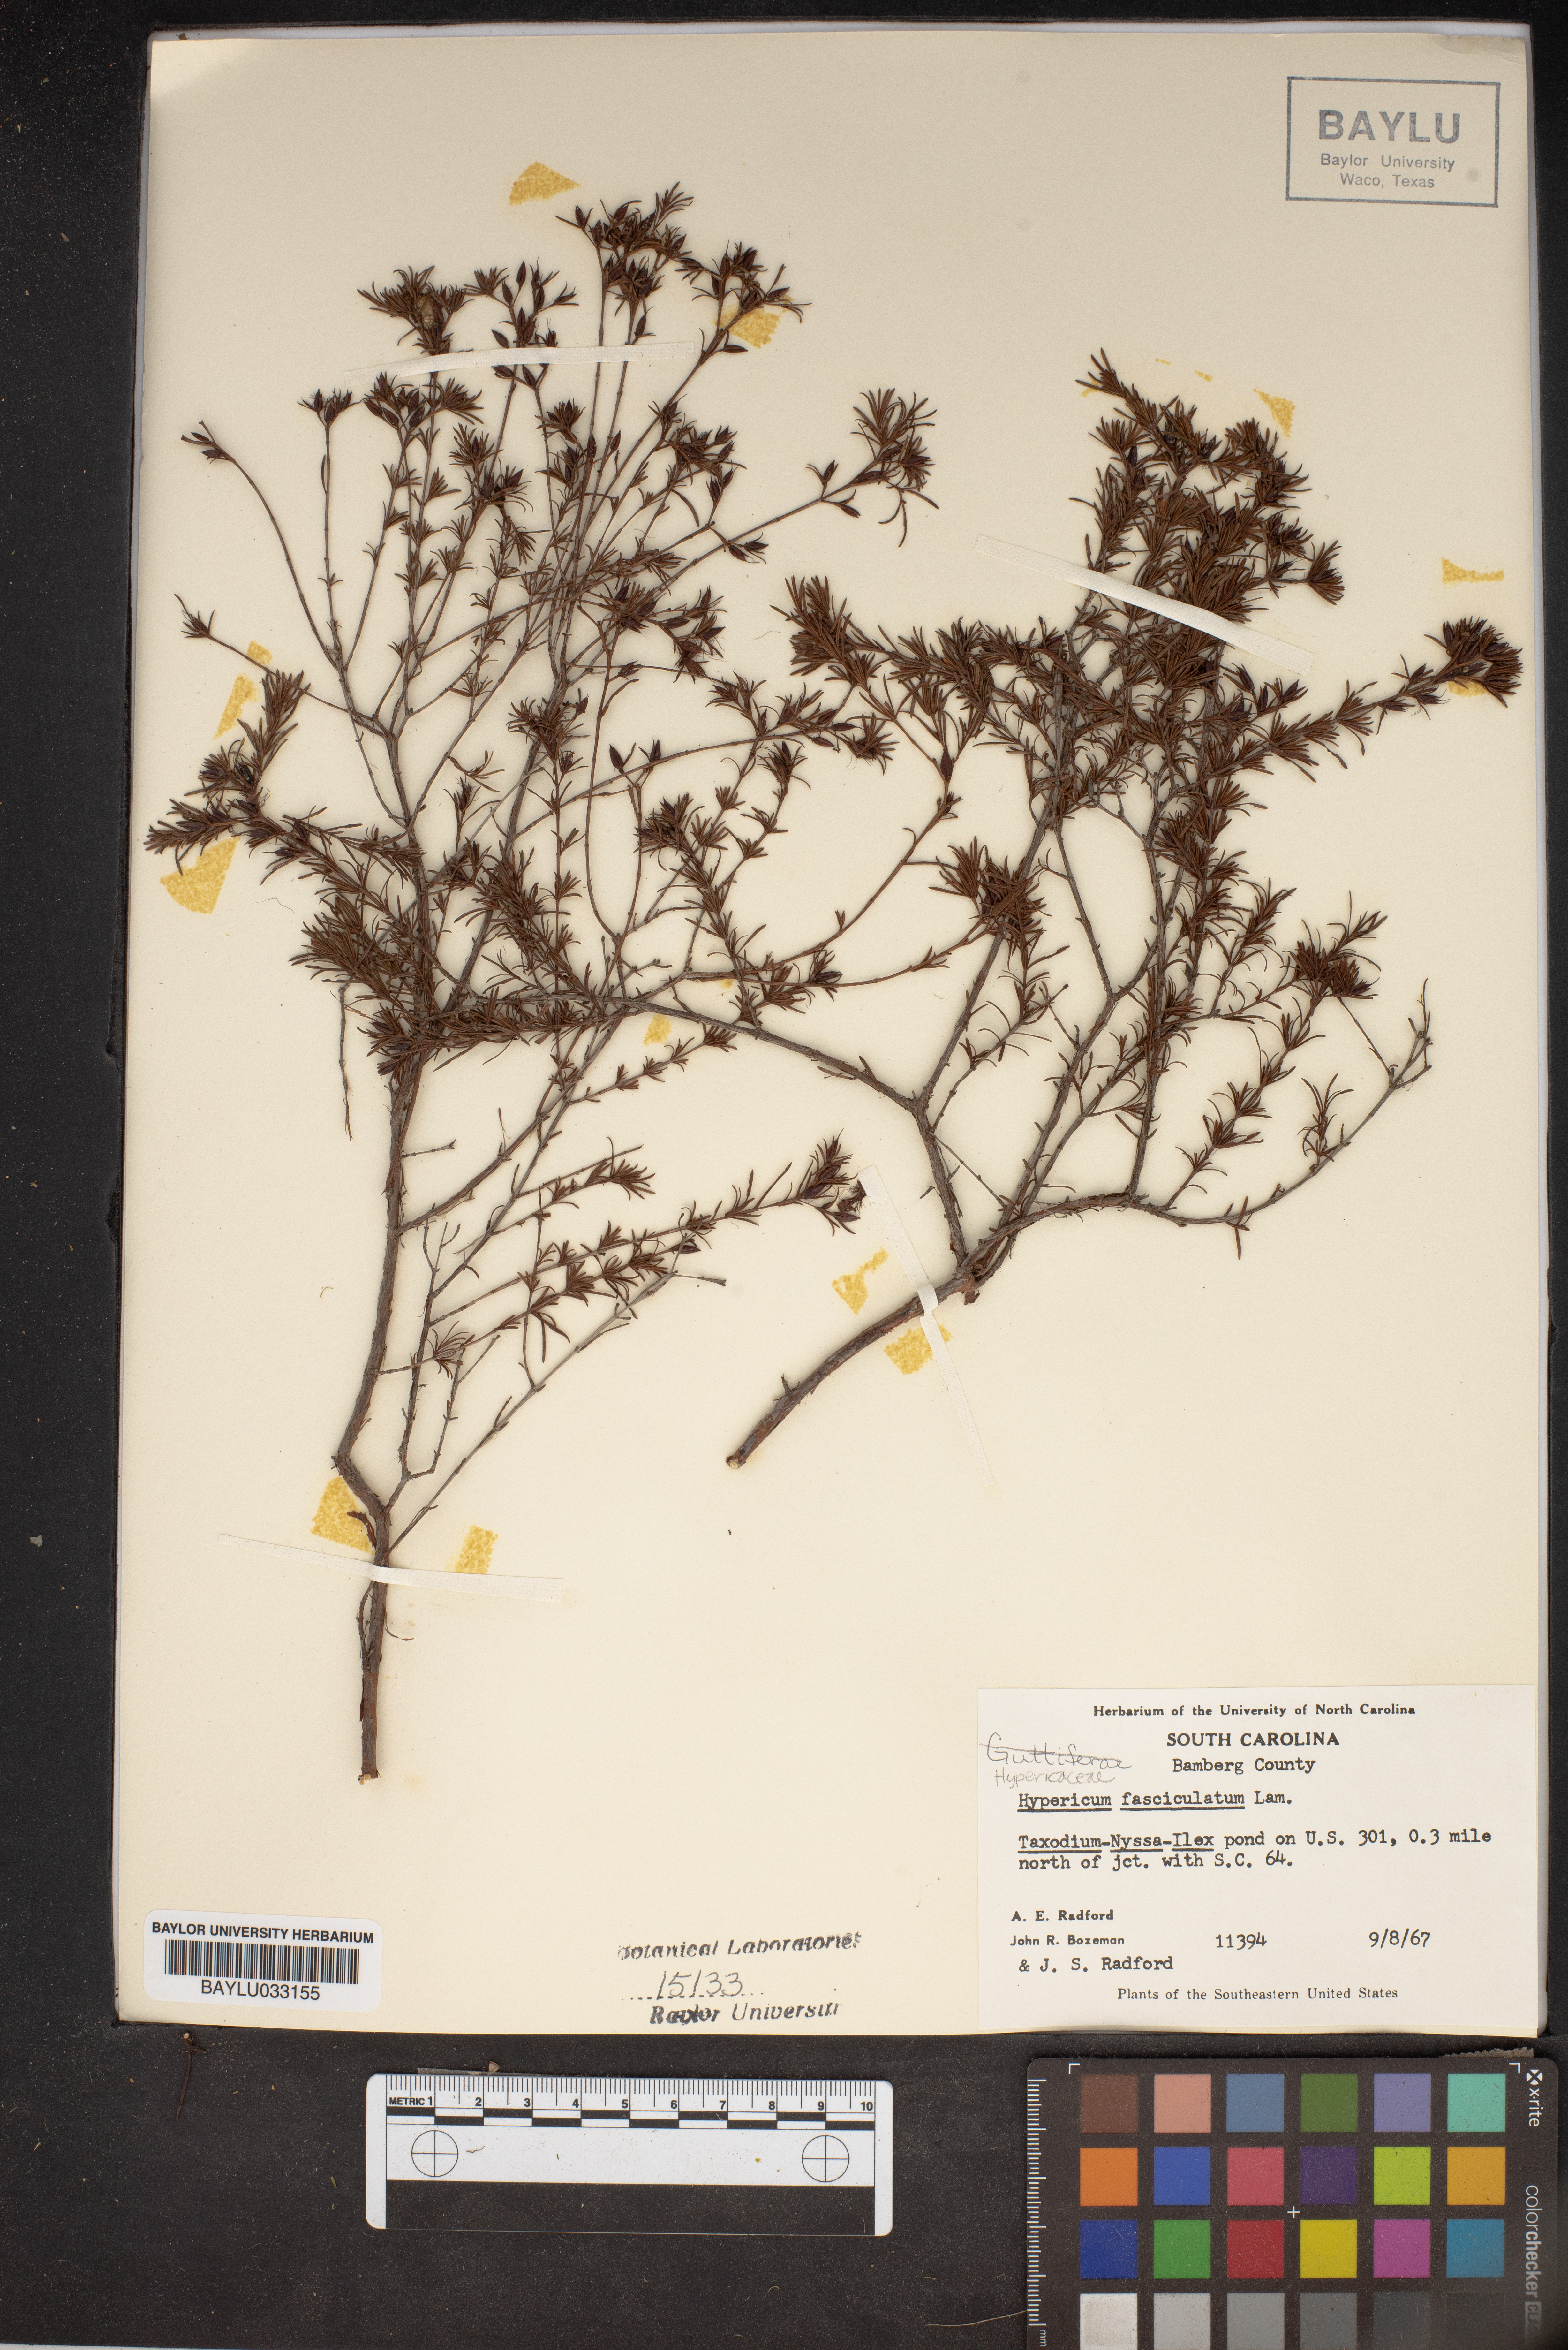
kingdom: Plantae
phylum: Tracheophyta
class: Magnoliopsida
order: Malpighiales
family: Hypericaceae
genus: Hypericum
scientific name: Hypericum fasciculatum
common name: Peelbark st. john's wort
